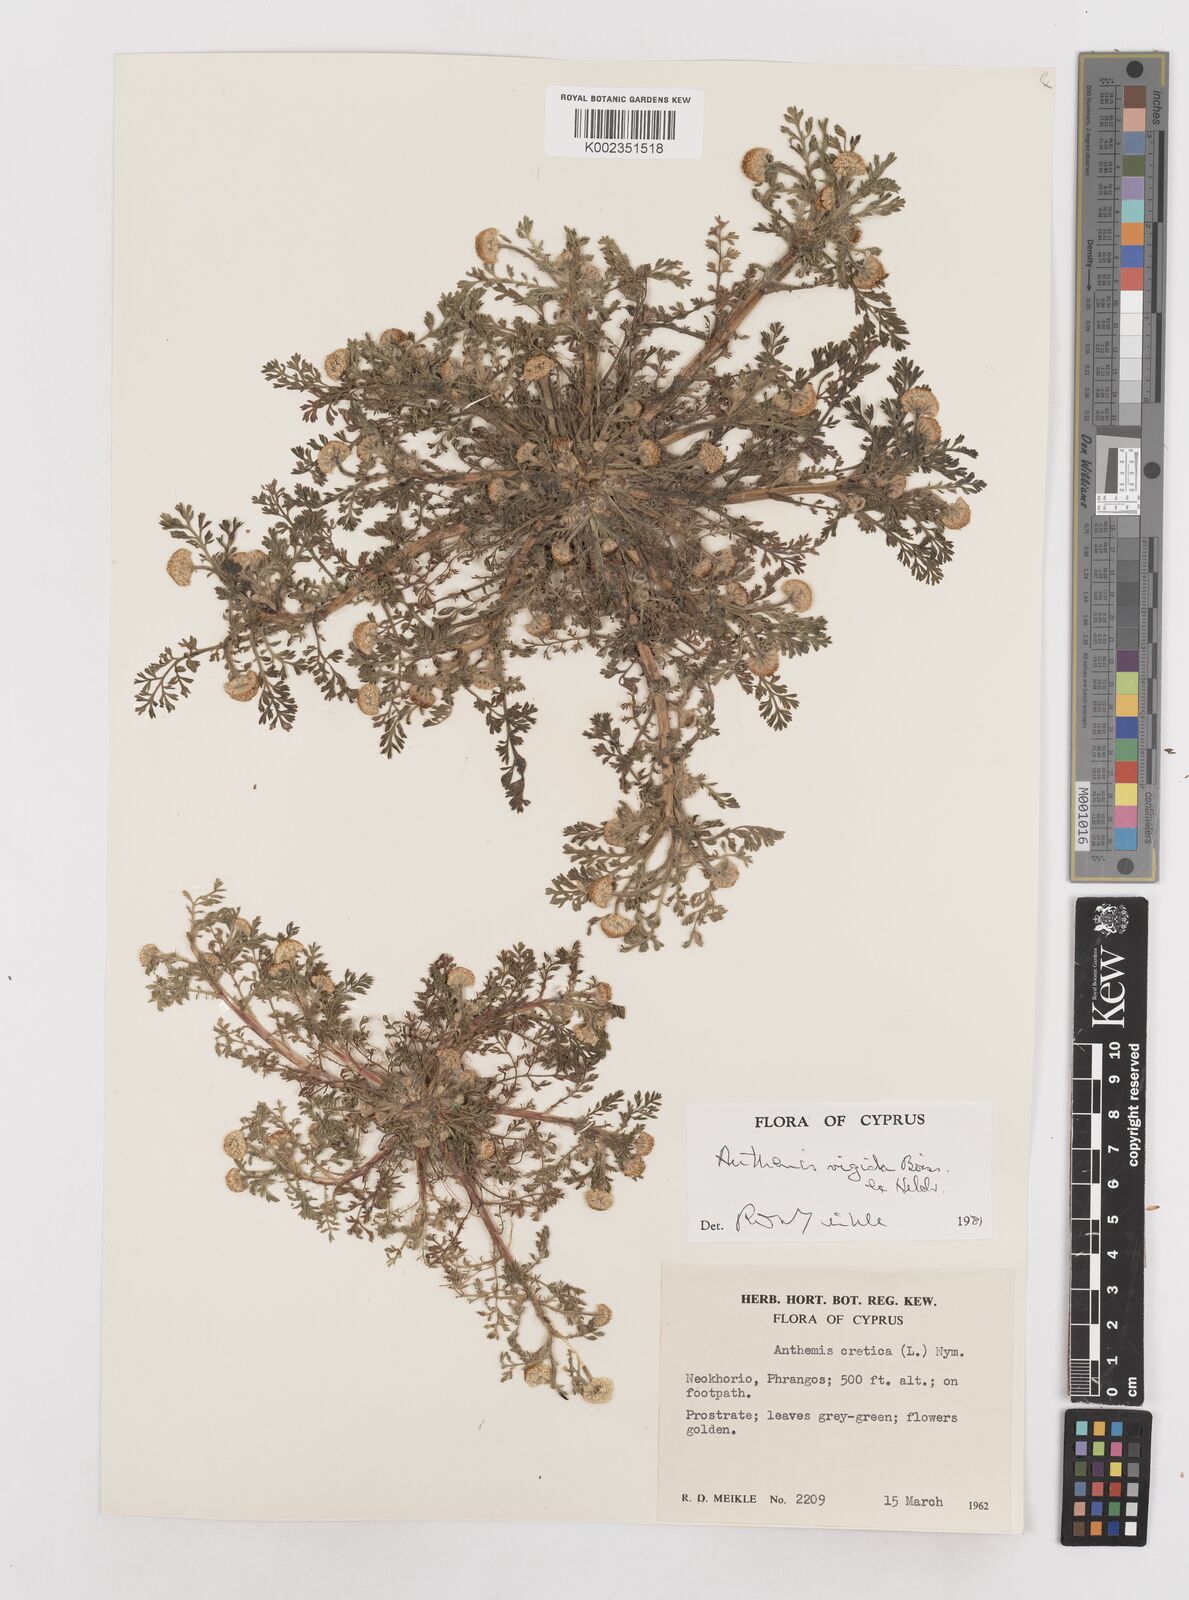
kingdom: Plantae
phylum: Tracheophyta
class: Magnoliopsida
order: Asterales
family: Asteraceae
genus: Anthemis
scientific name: Anthemis rigida
